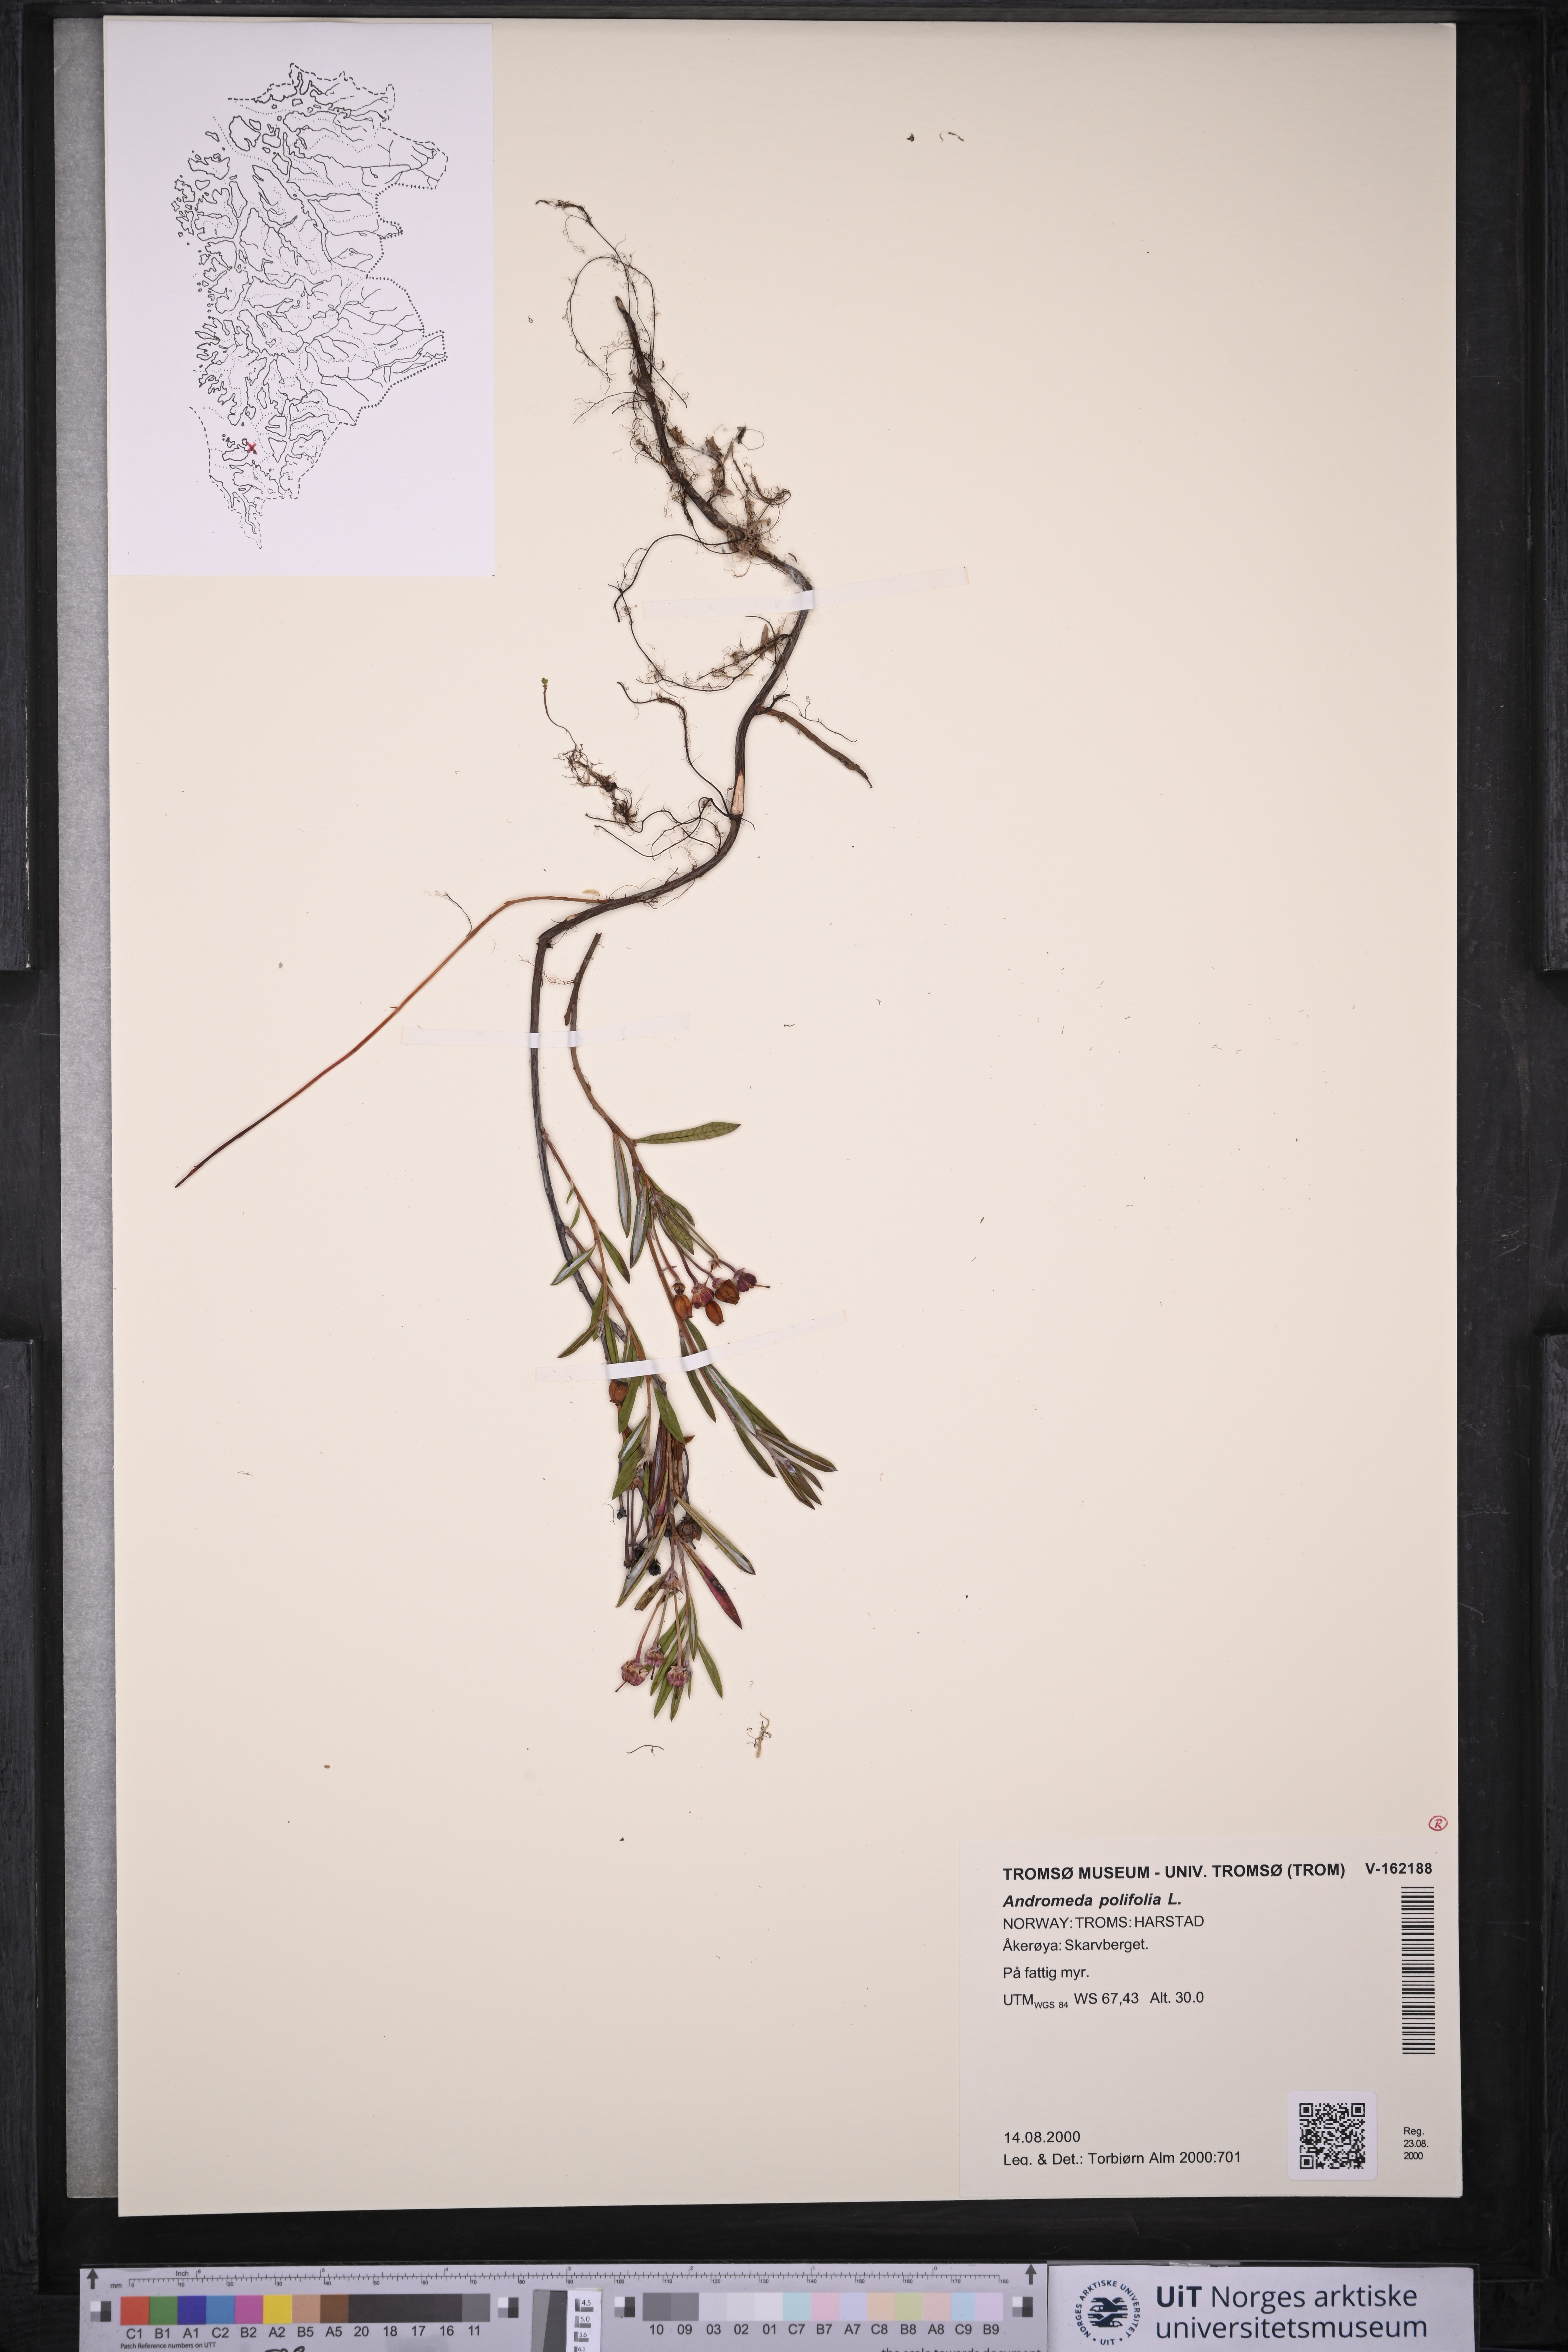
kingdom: Plantae
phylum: Tracheophyta
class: Magnoliopsida
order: Ericales
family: Ericaceae
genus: Andromeda
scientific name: Andromeda polifolia
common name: Bog-rosemary
